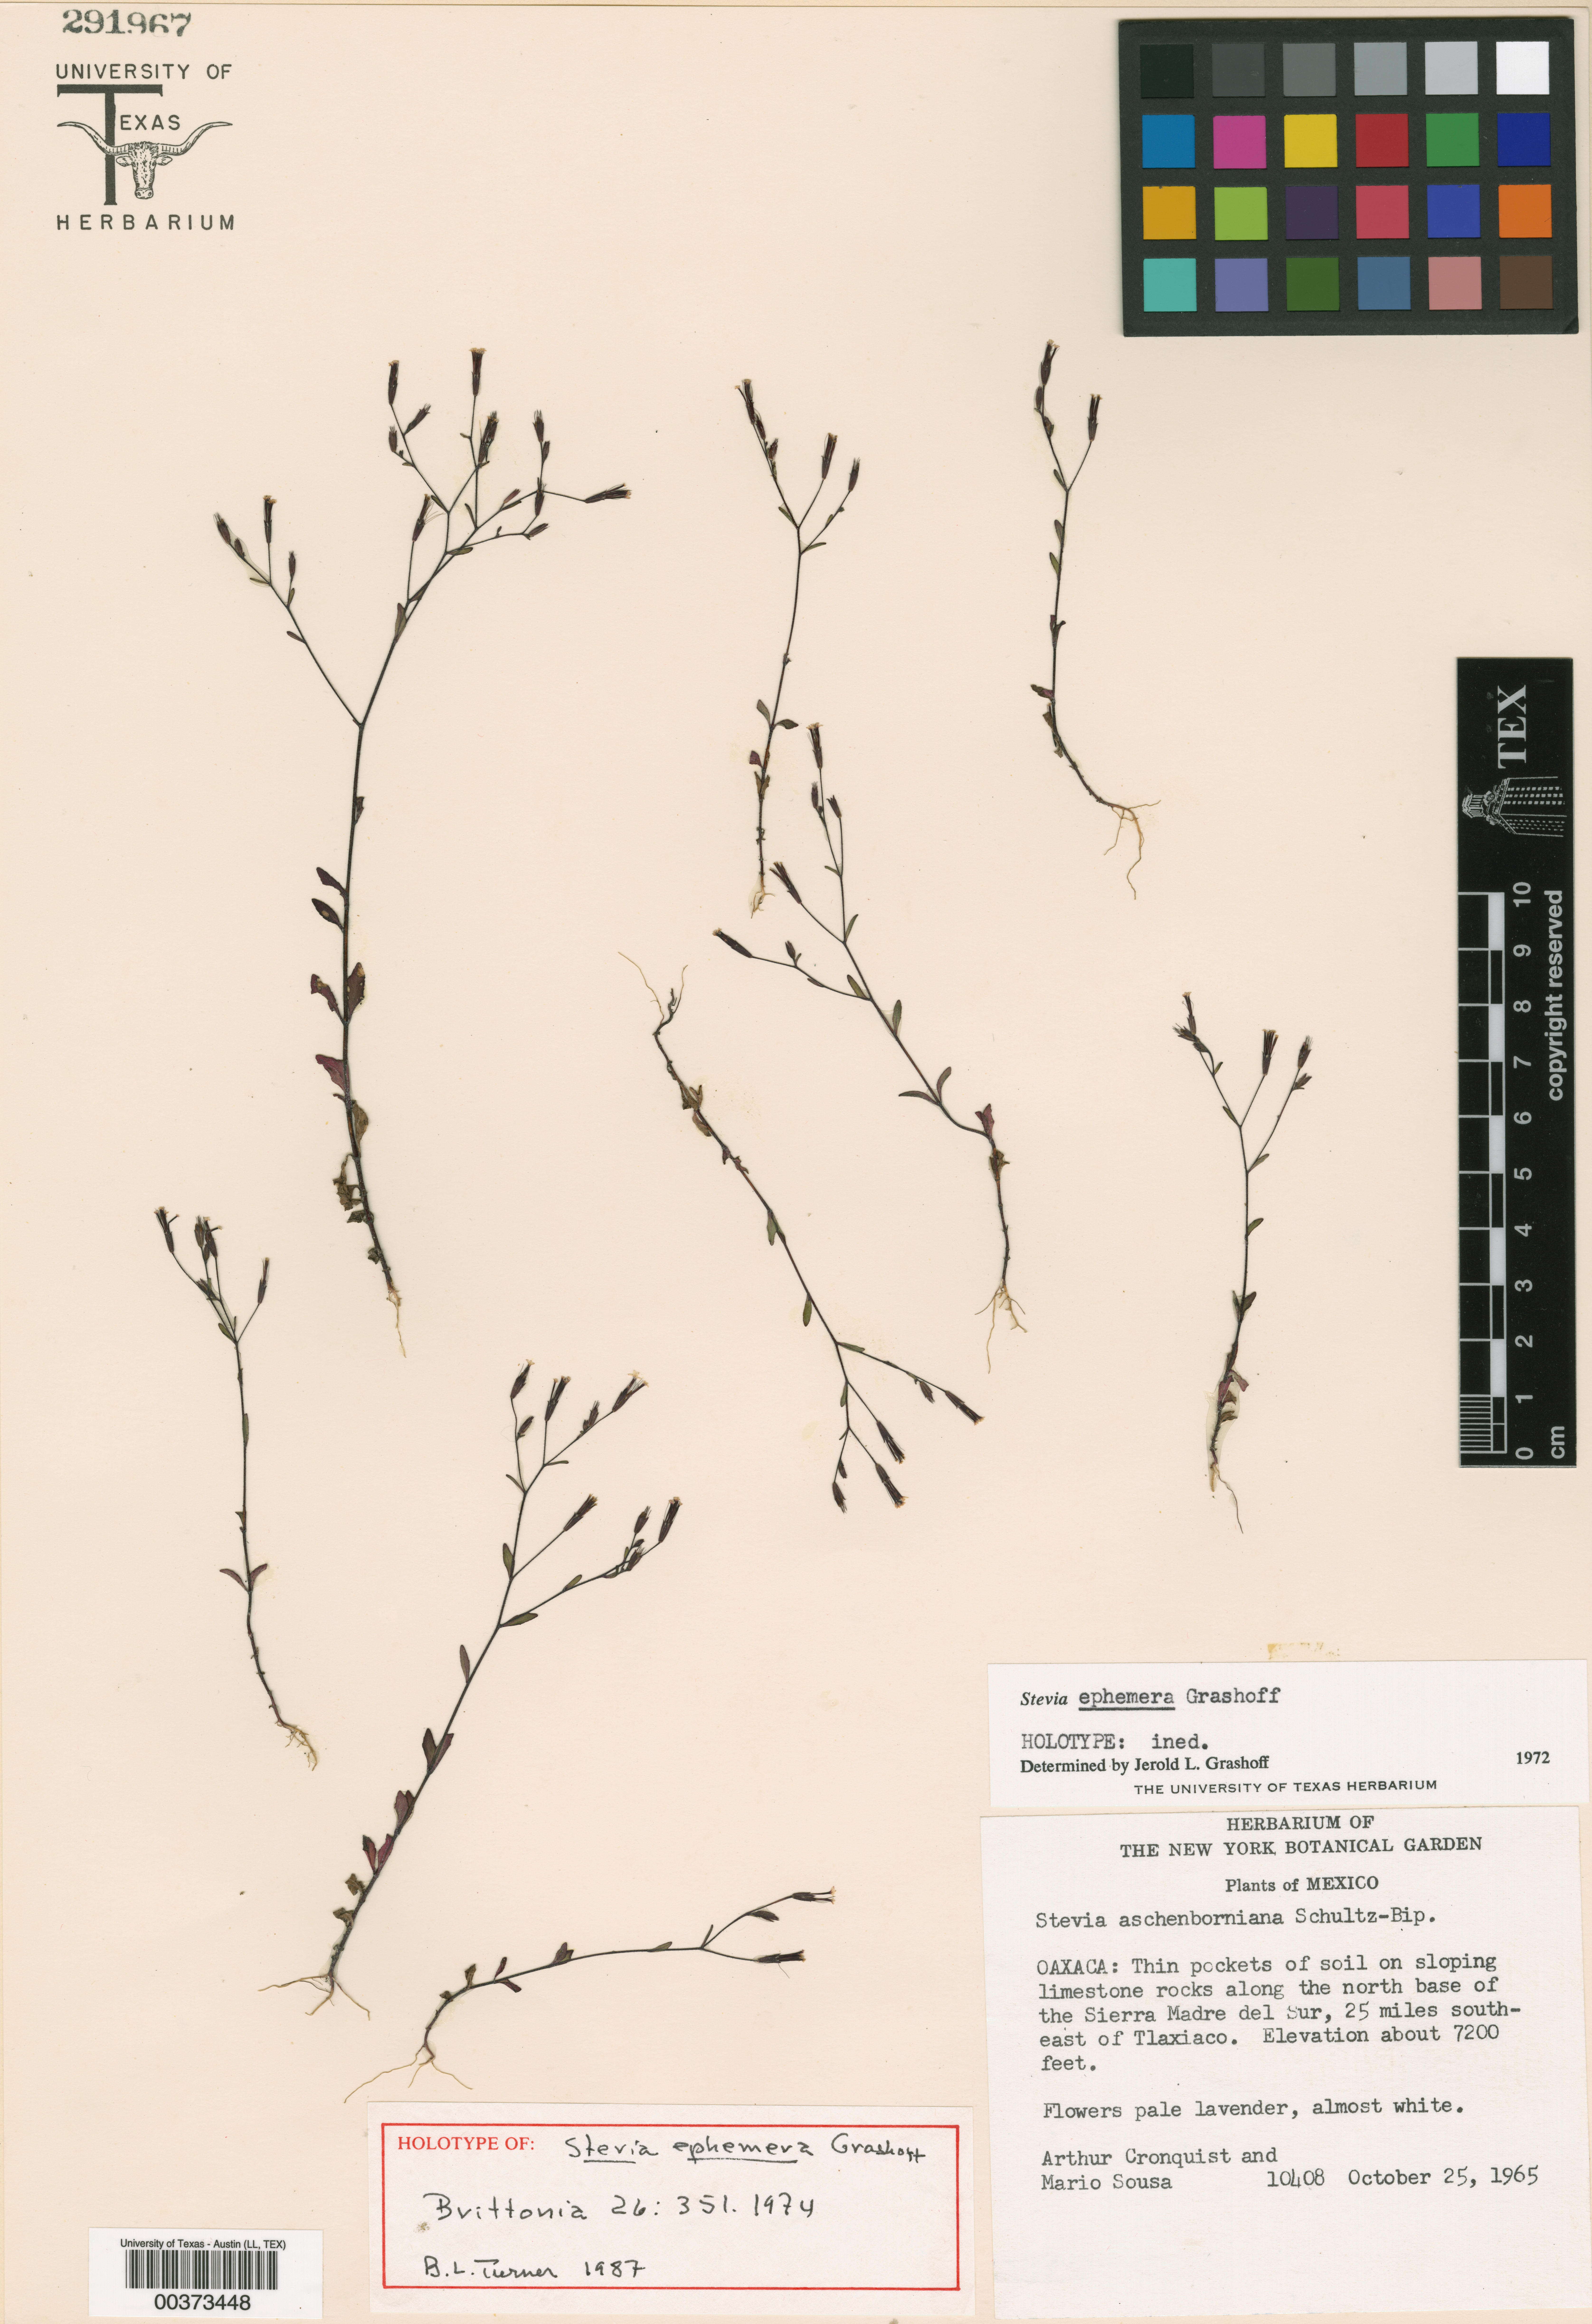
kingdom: Plantae
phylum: Tracheophyta
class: Magnoliopsida
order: Asterales
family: Asteraceae
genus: Stevia
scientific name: Stevia ephemera
